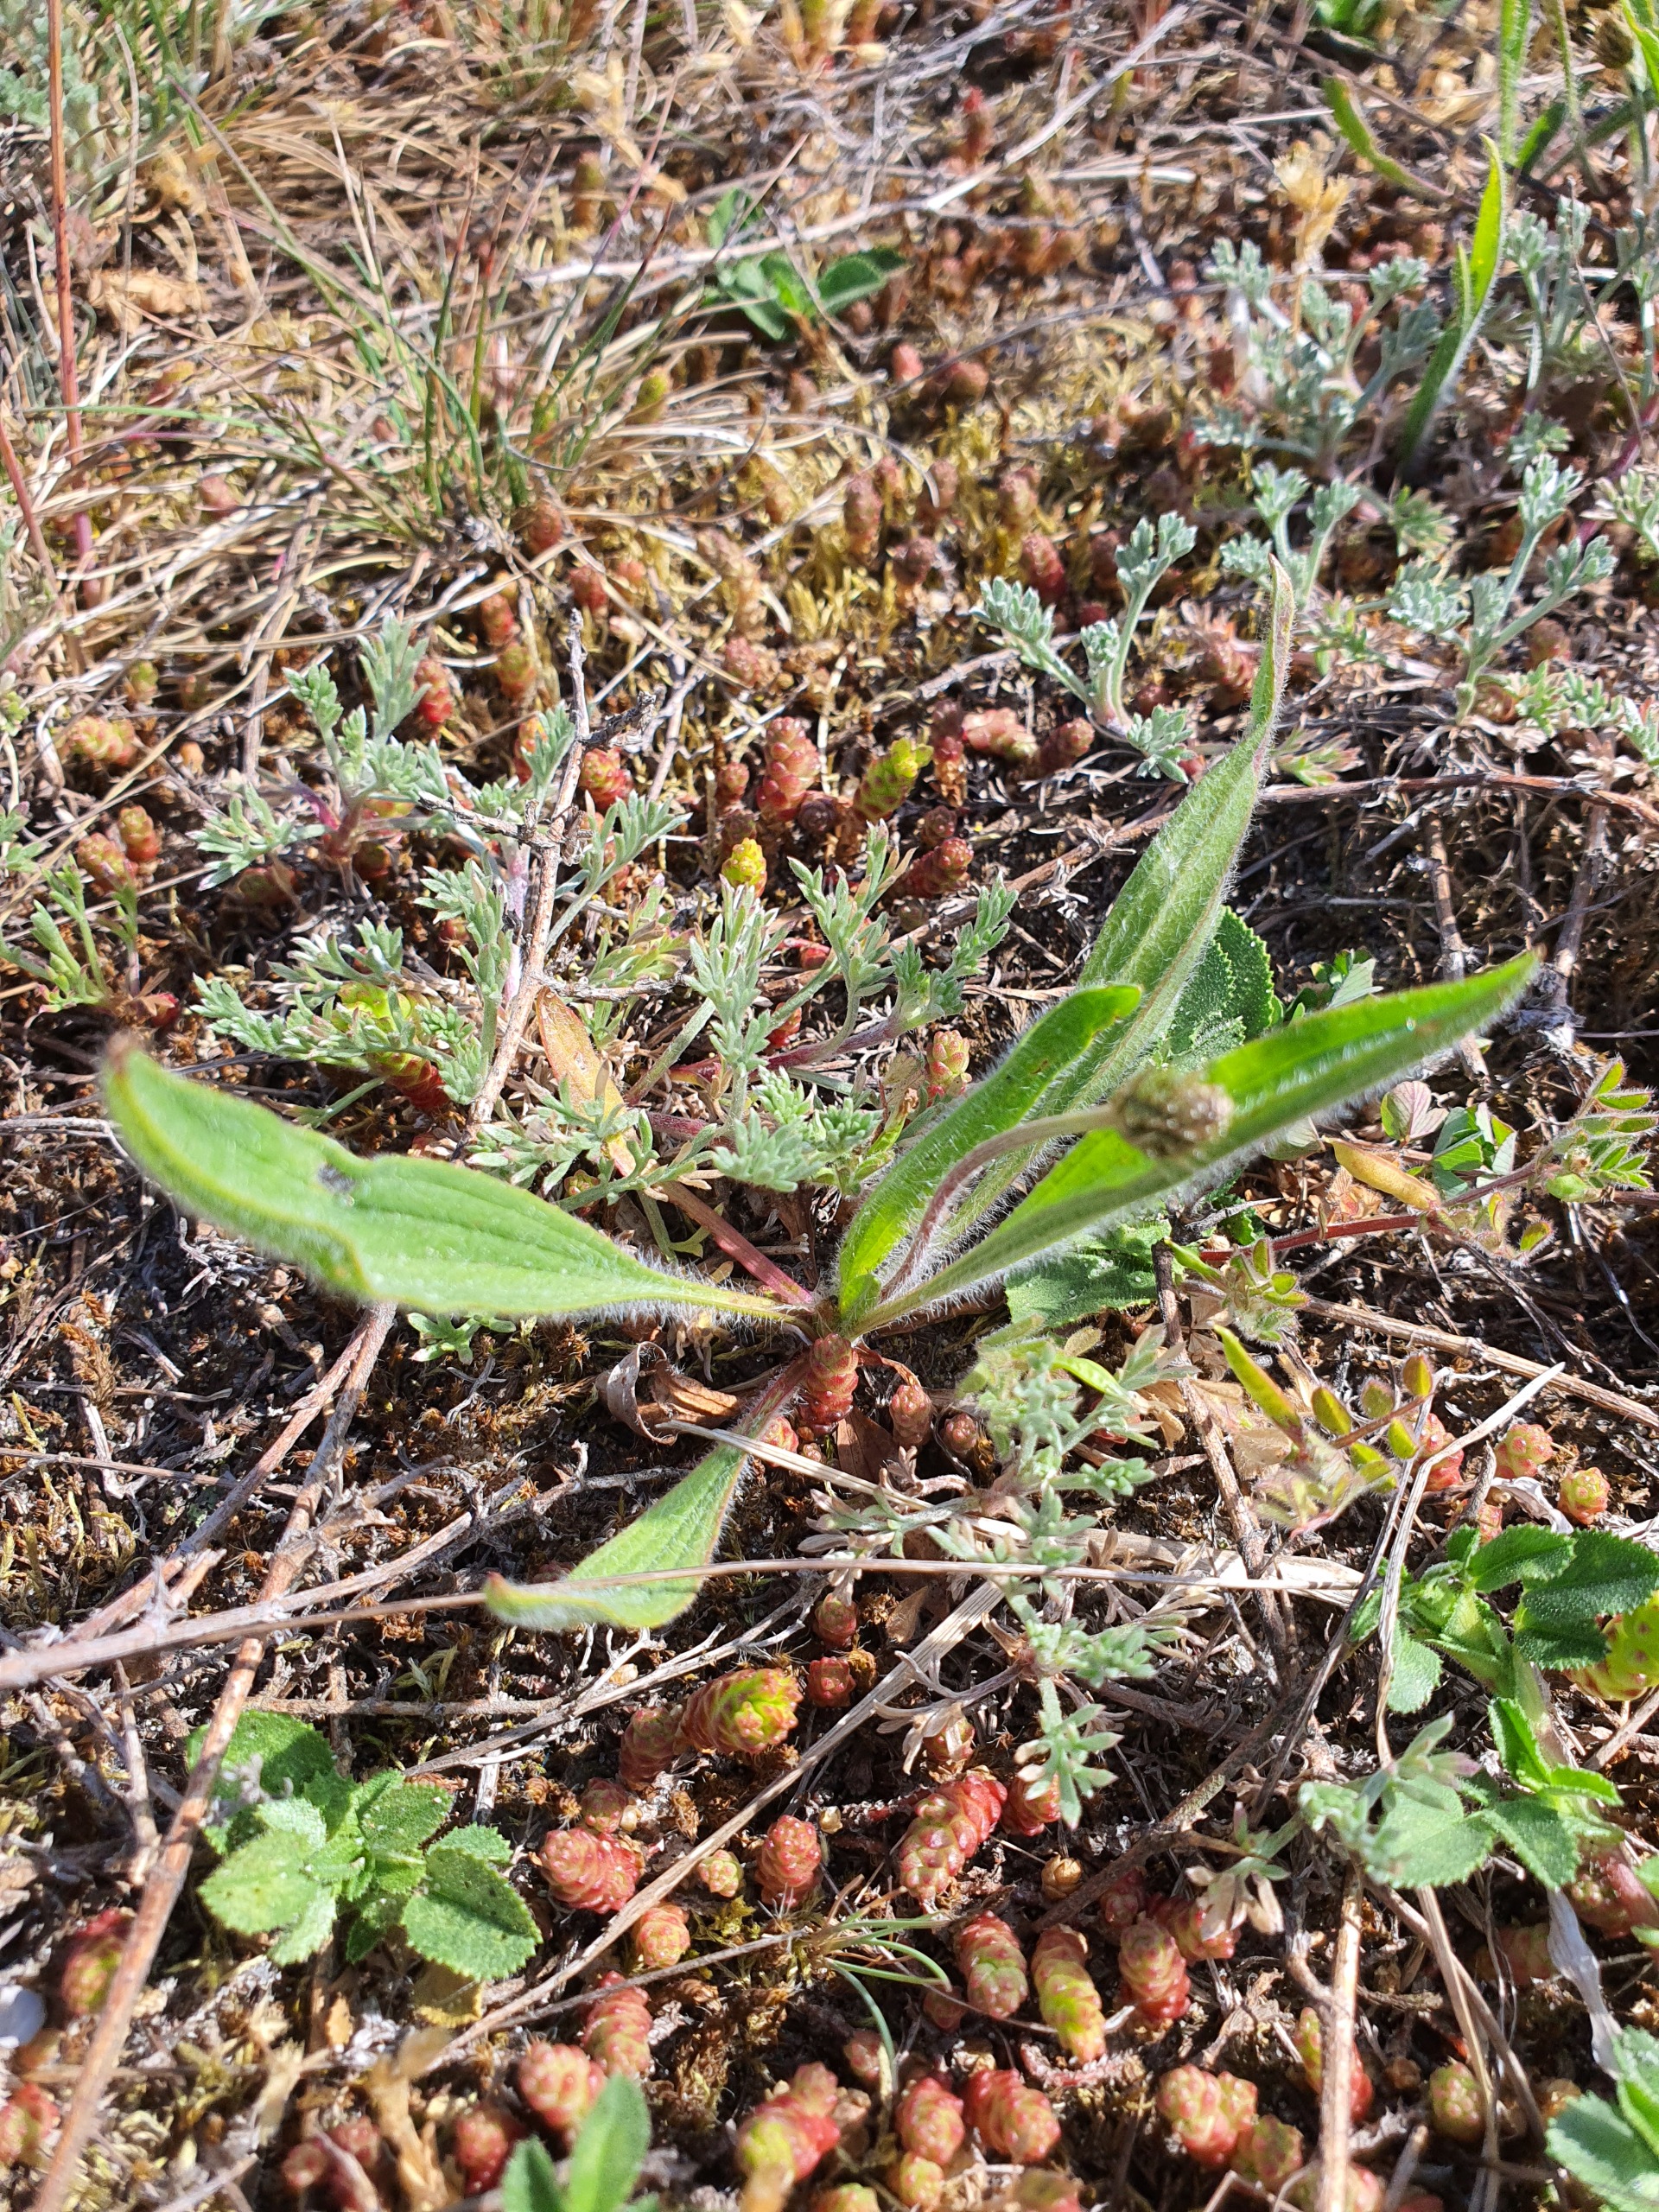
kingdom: Plantae
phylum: Tracheophyta
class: Magnoliopsida
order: Lamiales
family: Plantaginaceae
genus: Plantago
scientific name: Plantago lanceolata
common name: Lancet-vejbred
